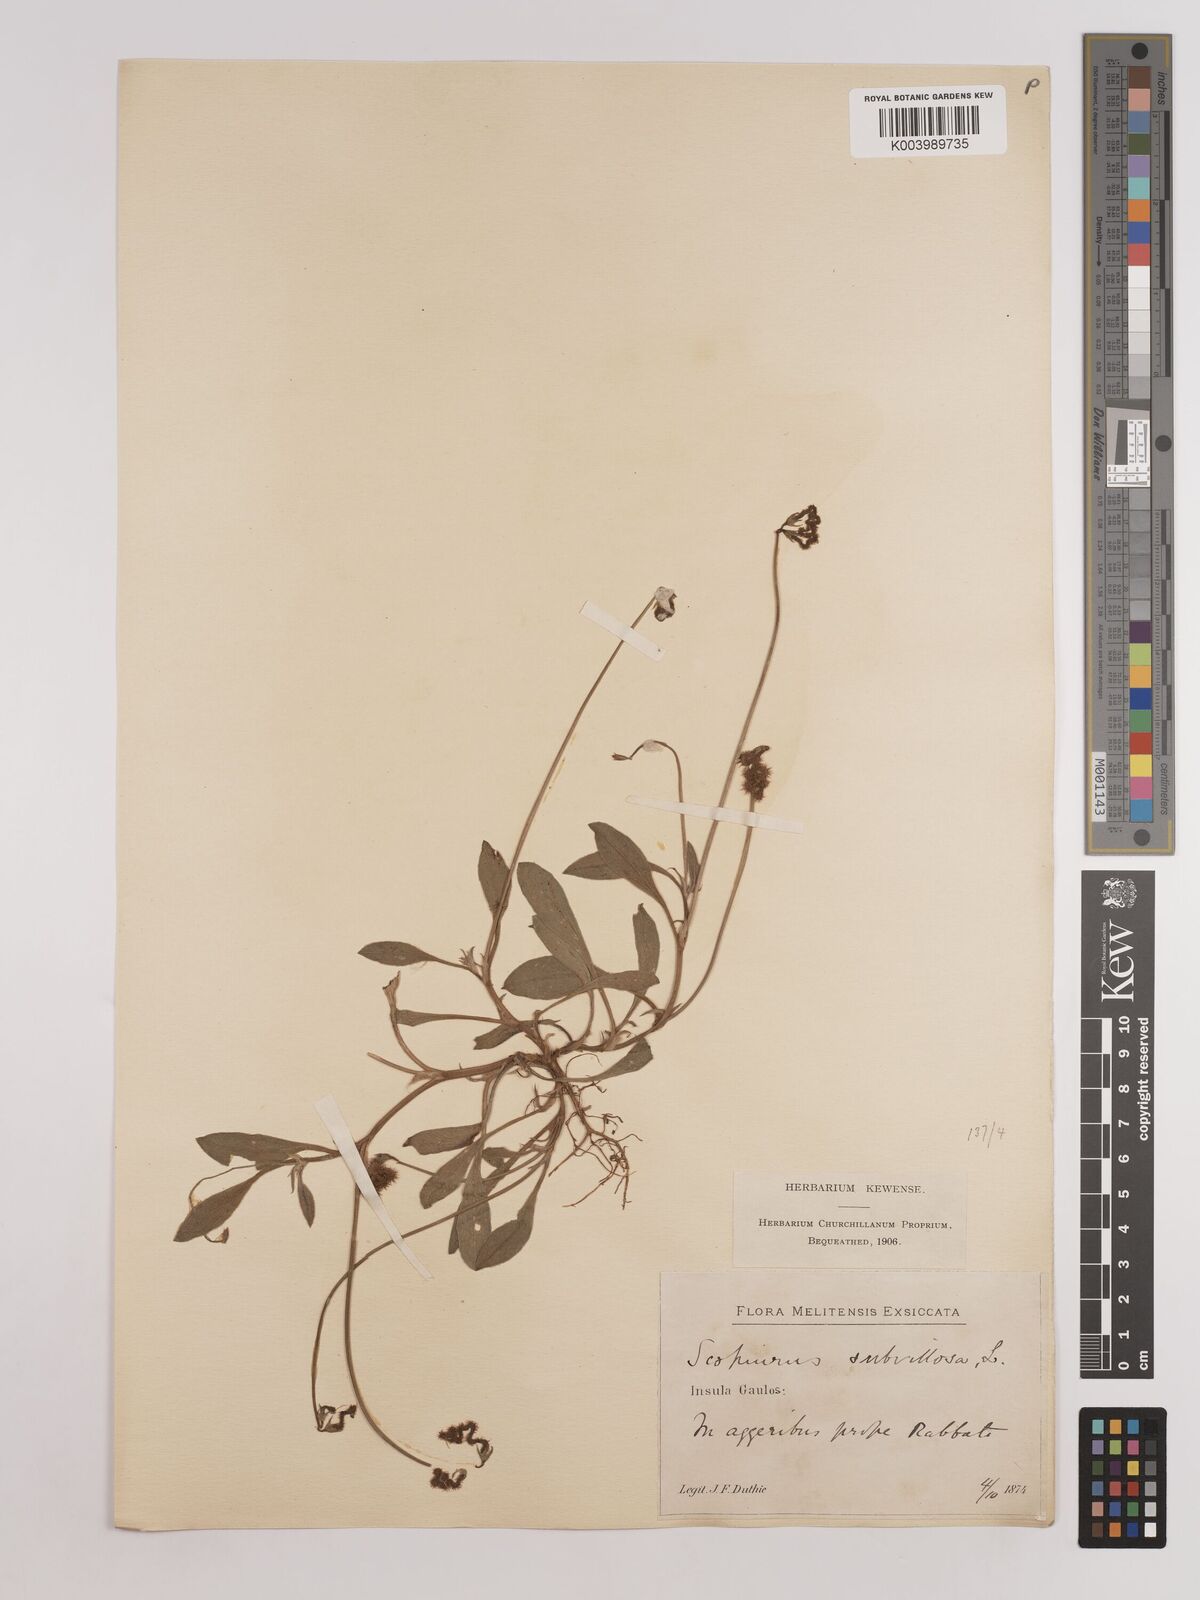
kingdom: Plantae
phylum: Tracheophyta
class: Magnoliopsida
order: Fabales
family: Fabaceae
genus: Scorpiurus
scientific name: Scorpiurus muricatus
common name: Caterpillar-plant
